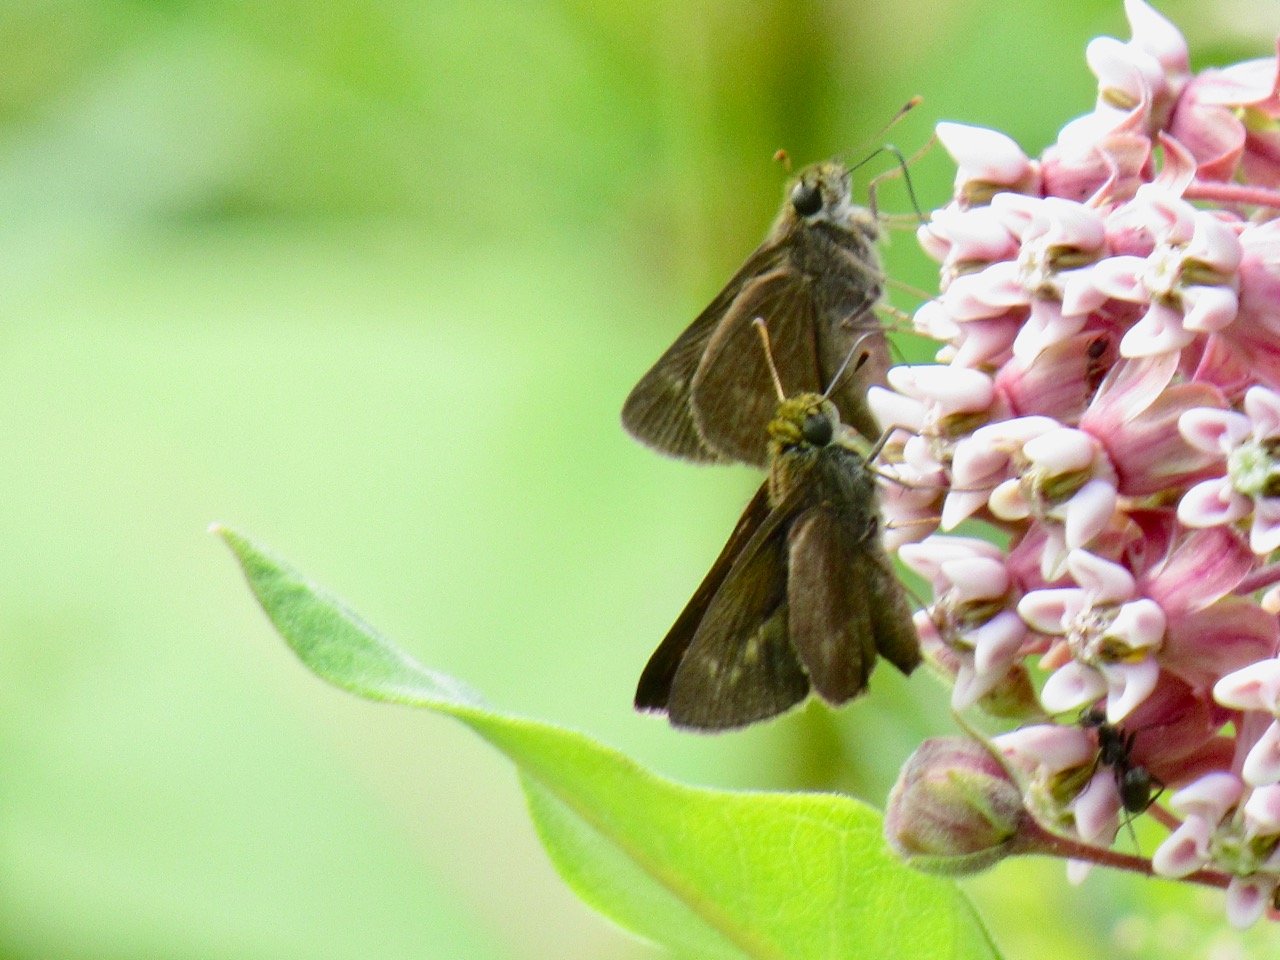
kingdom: Animalia
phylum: Arthropoda
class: Insecta
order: Lepidoptera
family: Hesperiidae
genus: Polites
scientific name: Polites egeremet
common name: Northern Broken-Dash
